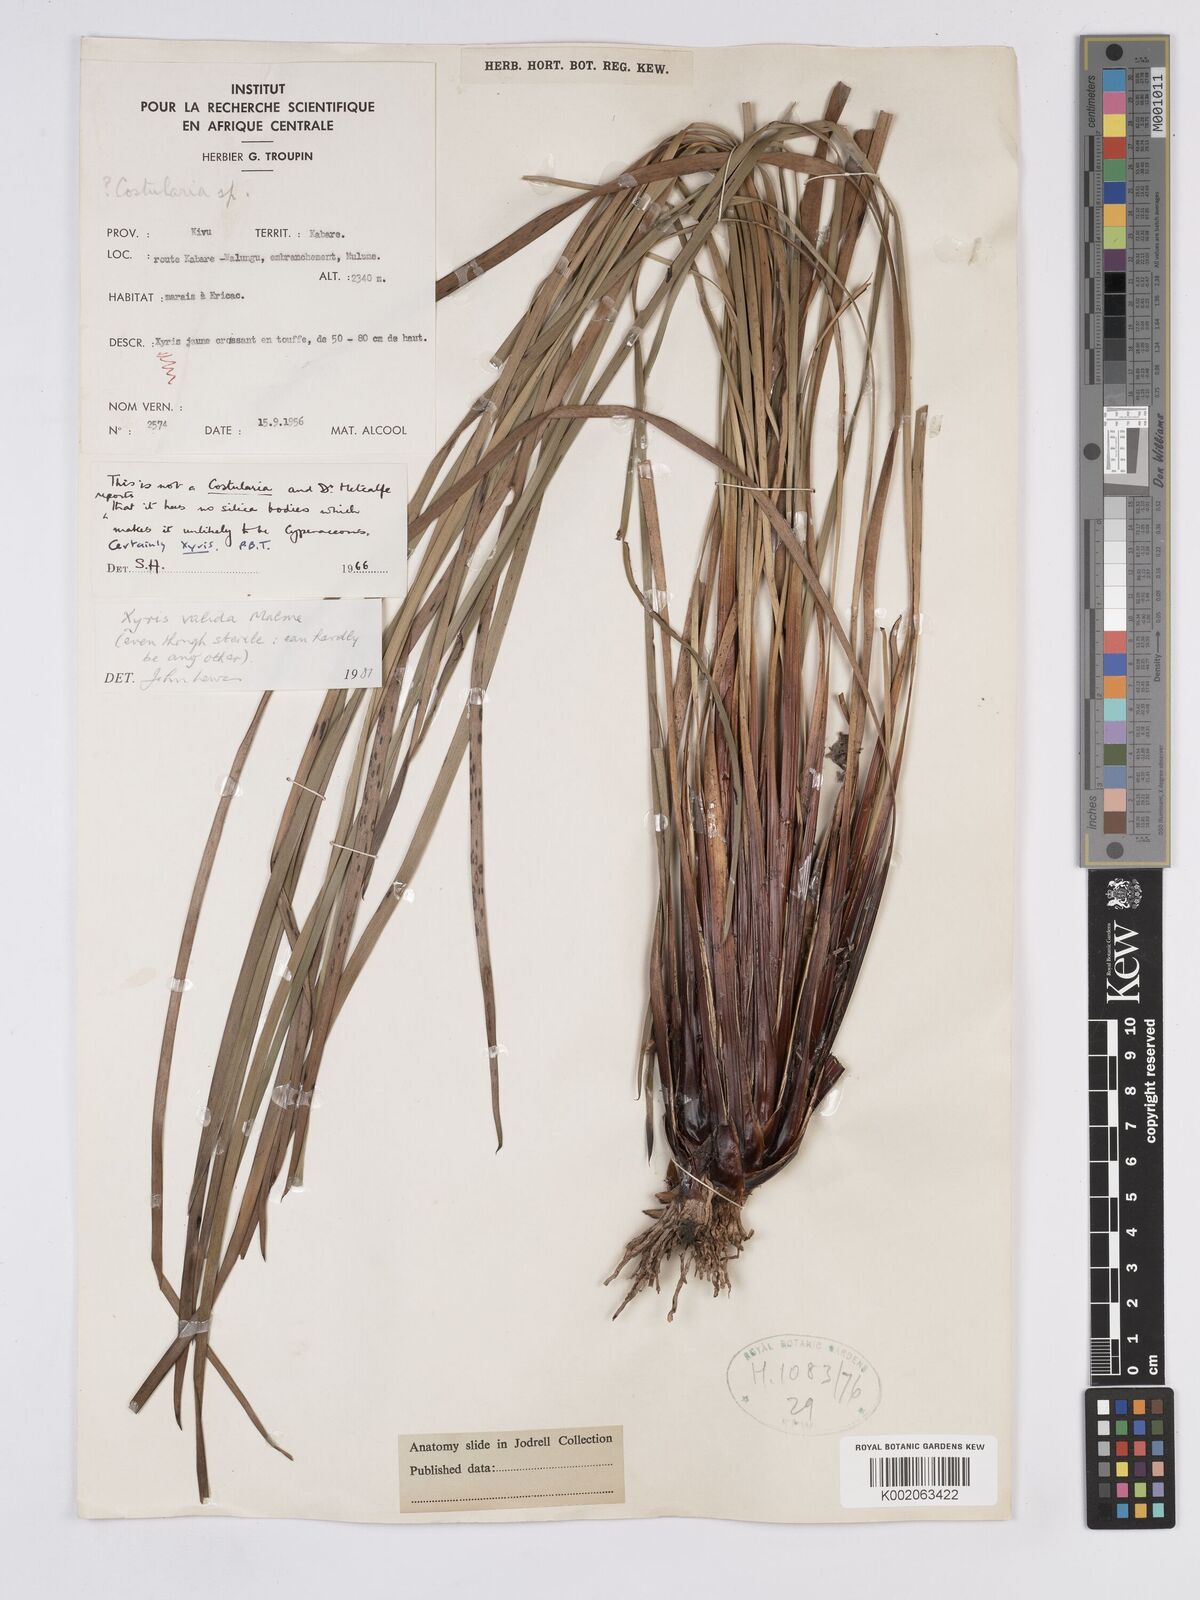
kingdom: Plantae
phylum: Tracheophyta
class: Liliopsida
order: Poales
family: Xyridaceae
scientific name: Xyridaceae
